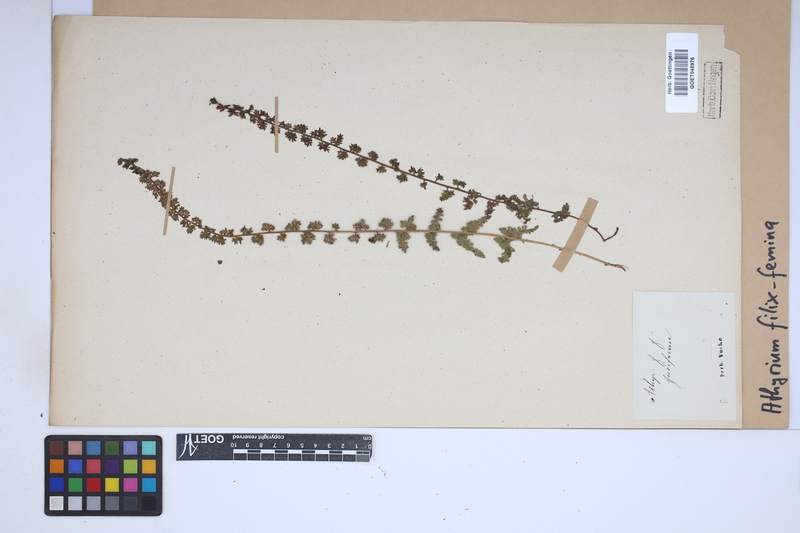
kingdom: Plantae
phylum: Tracheophyta
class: Polypodiopsida
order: Polypodiales
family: Athyriaceae
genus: Athyrium
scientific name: Athyrium filix-femina
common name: Lady fern
